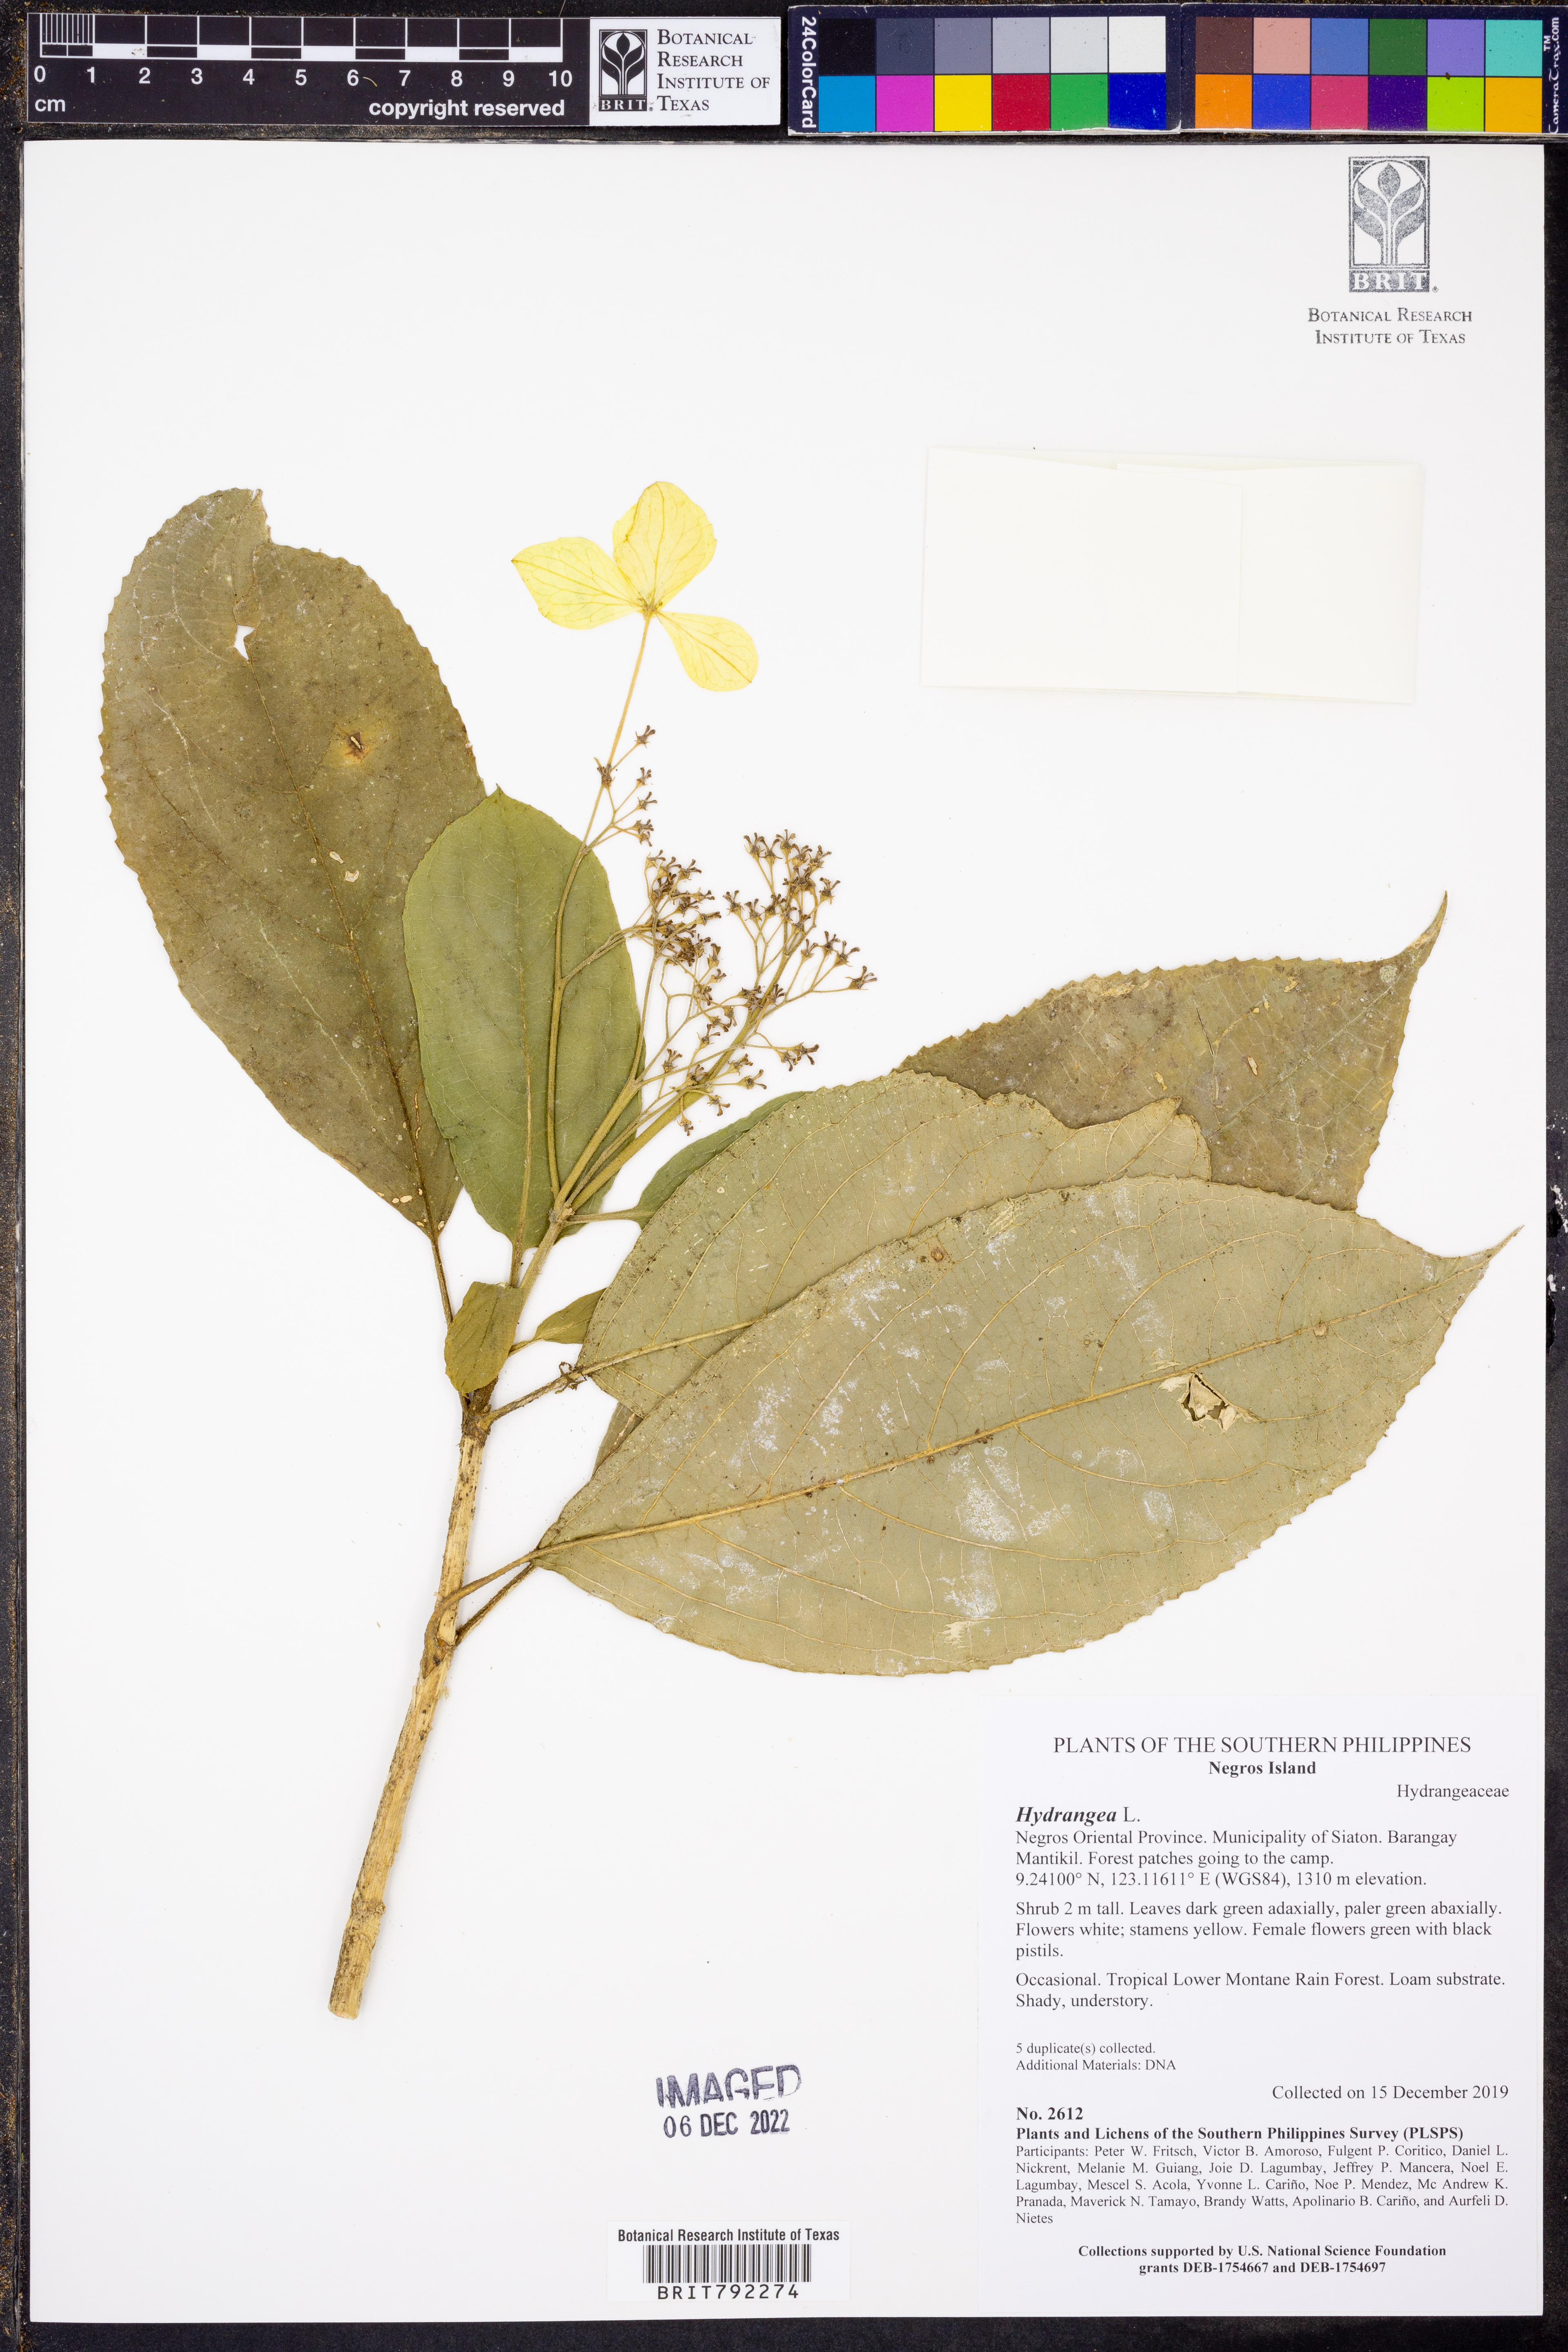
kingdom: Plantae
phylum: Tracheophyta
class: Magnoliopsida
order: Cornales
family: Hydrangeaceae
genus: Hydrangea
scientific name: Hydrangea
